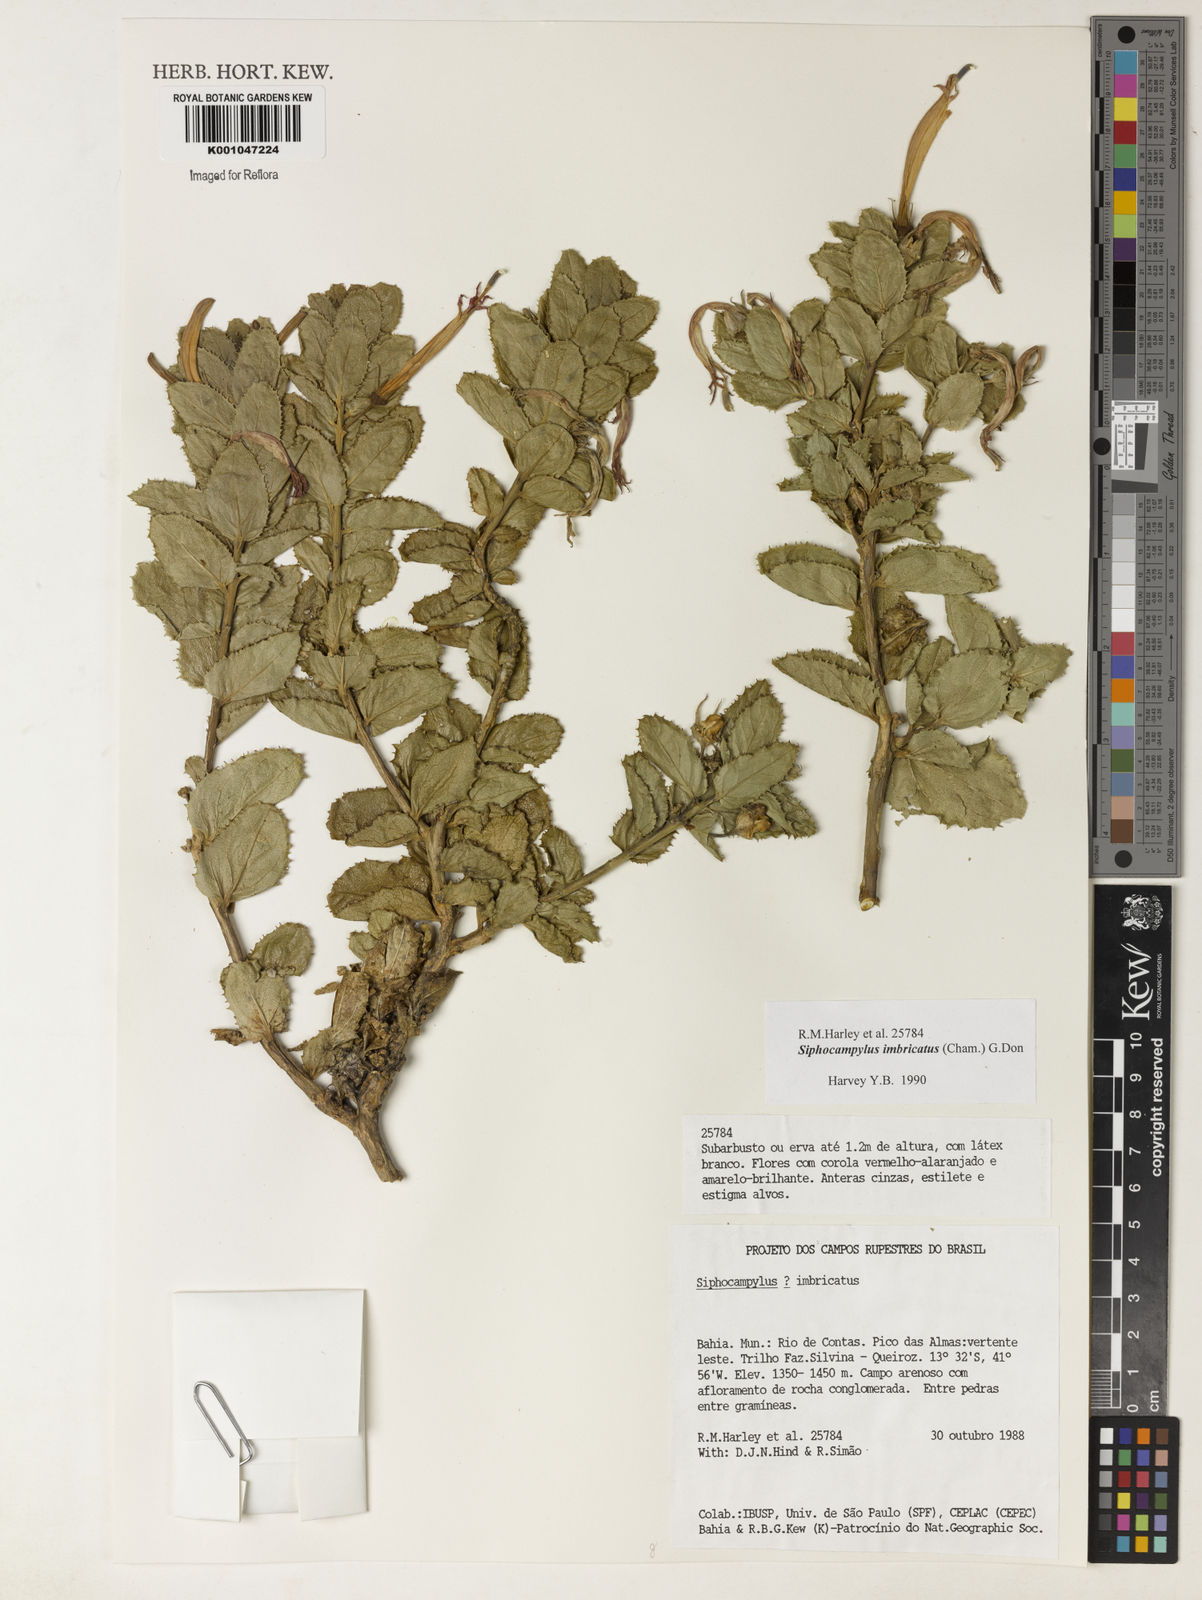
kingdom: Plantae
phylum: Tracheophyta
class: Magnoliopsida
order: Asterales
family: Campanulaceae
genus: Siphocampylus
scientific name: Siphocampylus imbricatus
